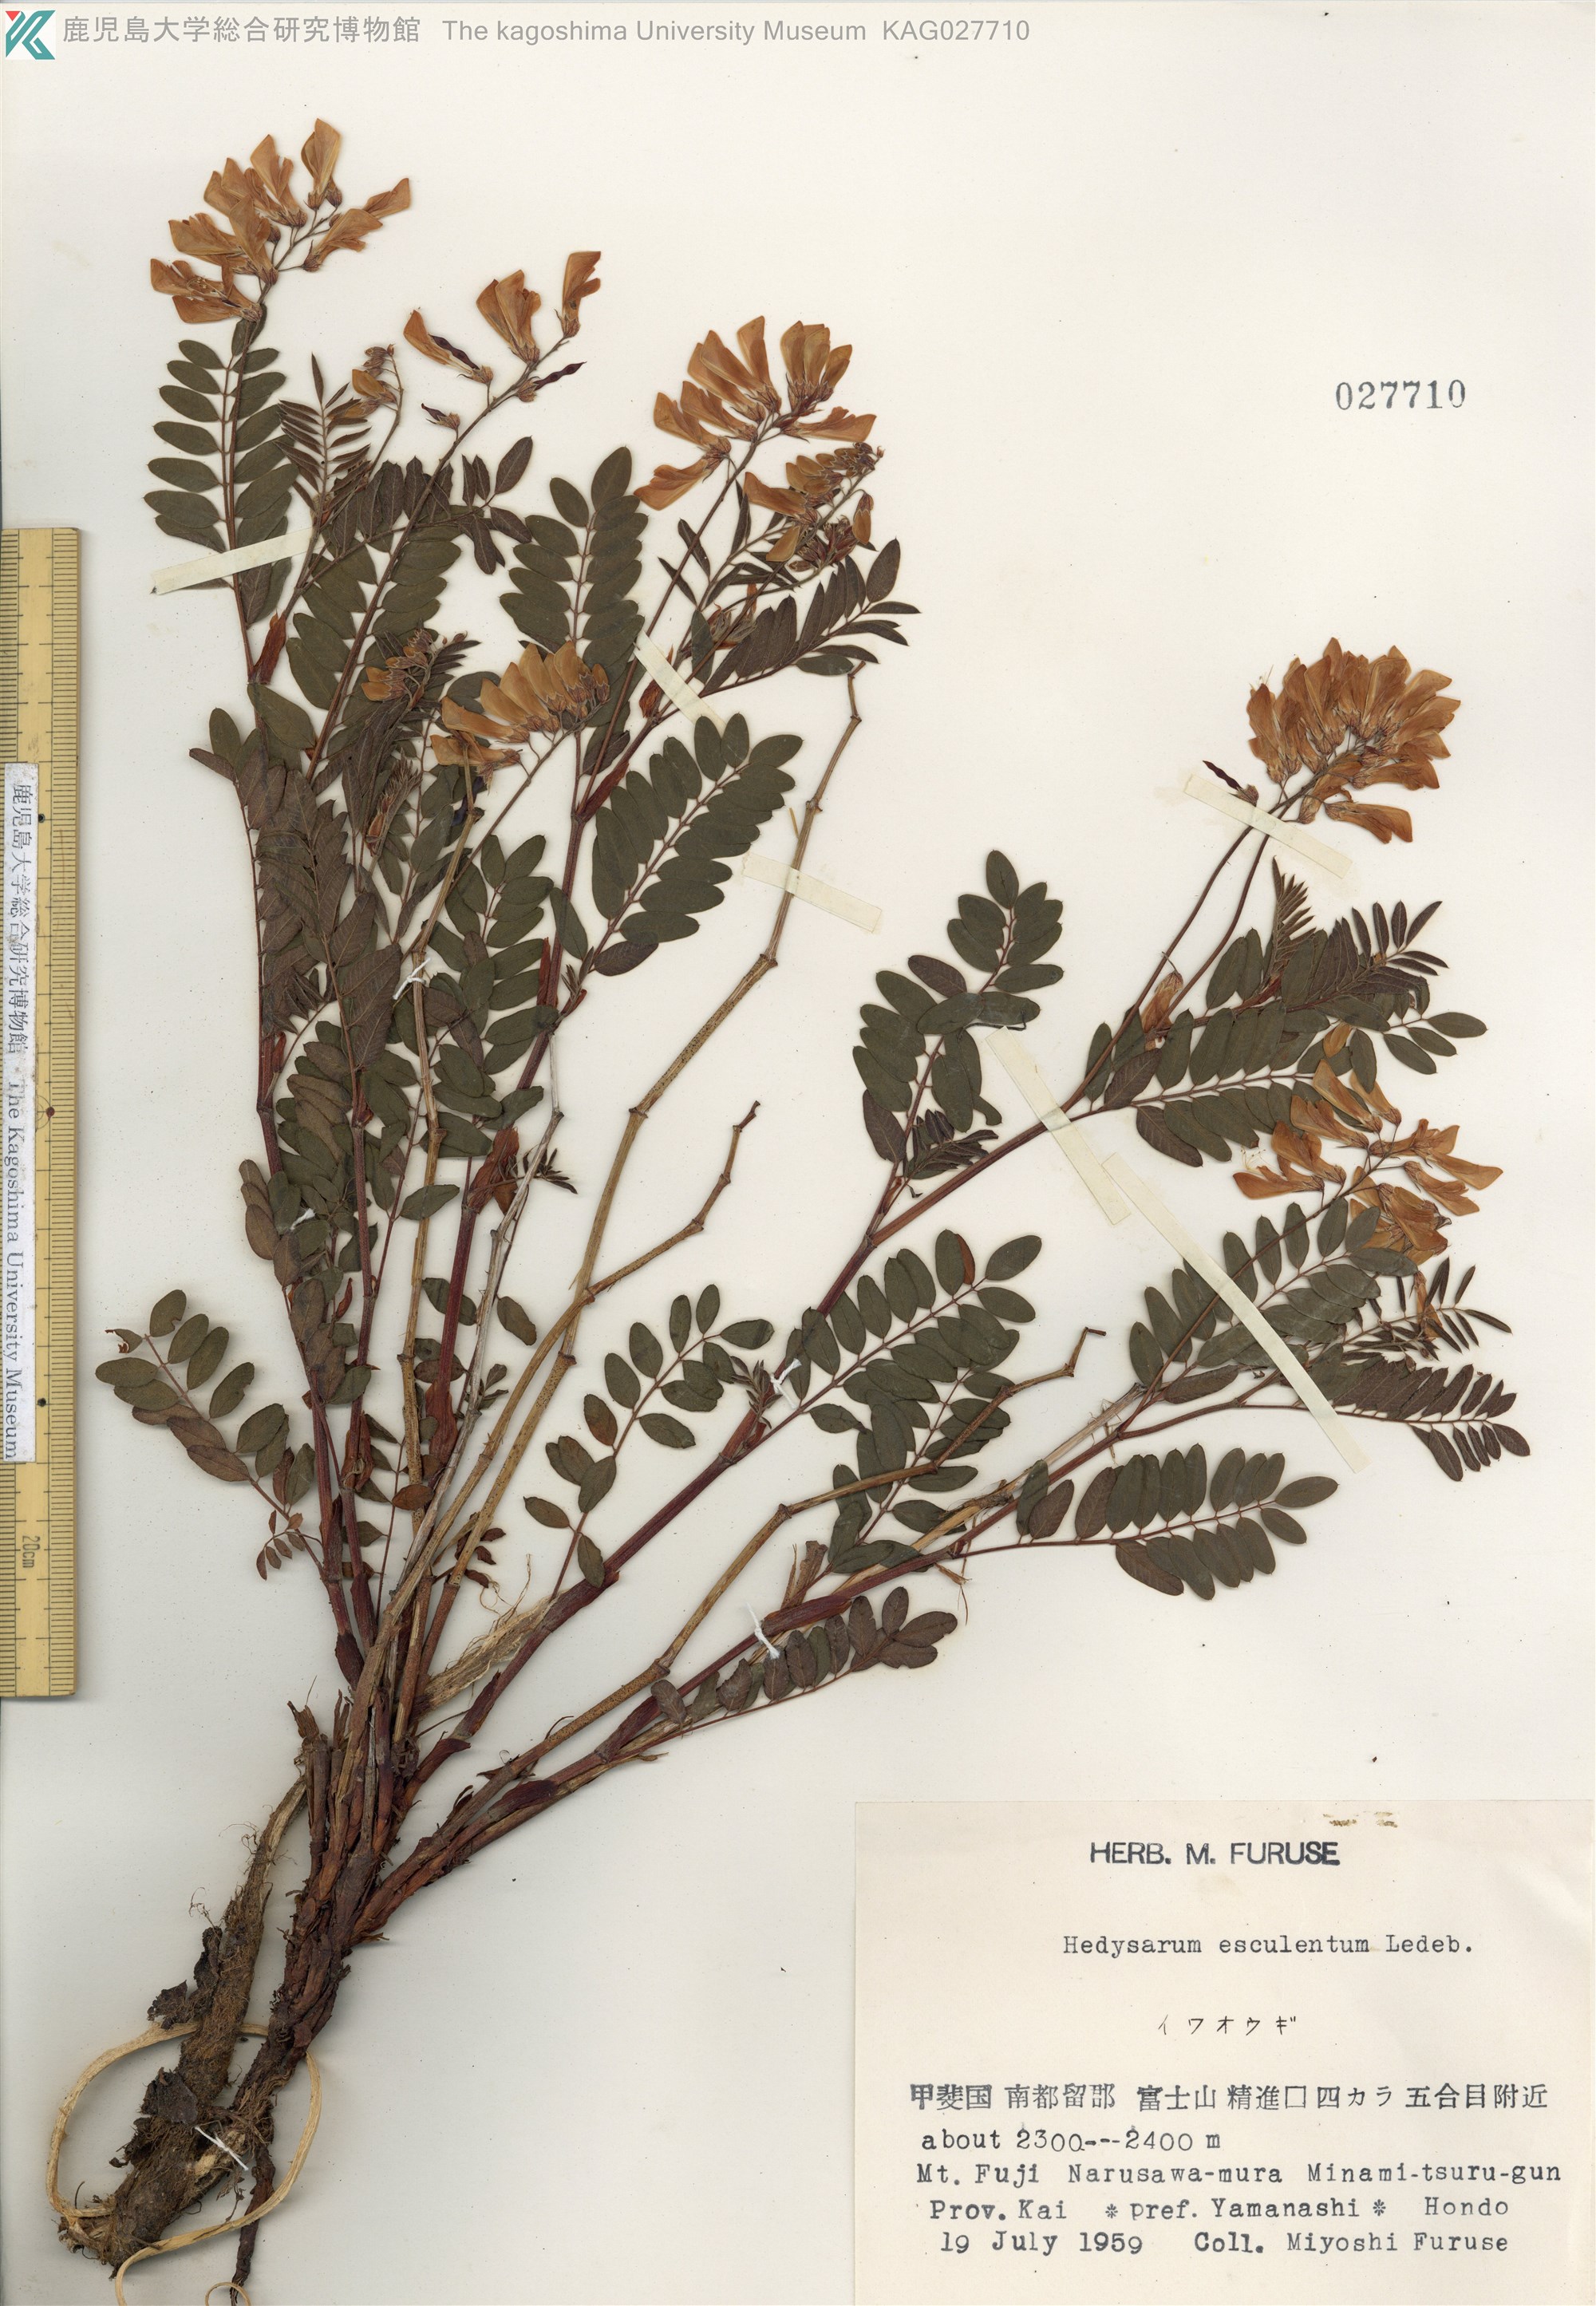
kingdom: Plantae
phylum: Tracheophyta
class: Magnoliopsida
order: Fabales
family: Fabaceae
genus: Hedysarum
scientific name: Hedysarum vicioides
